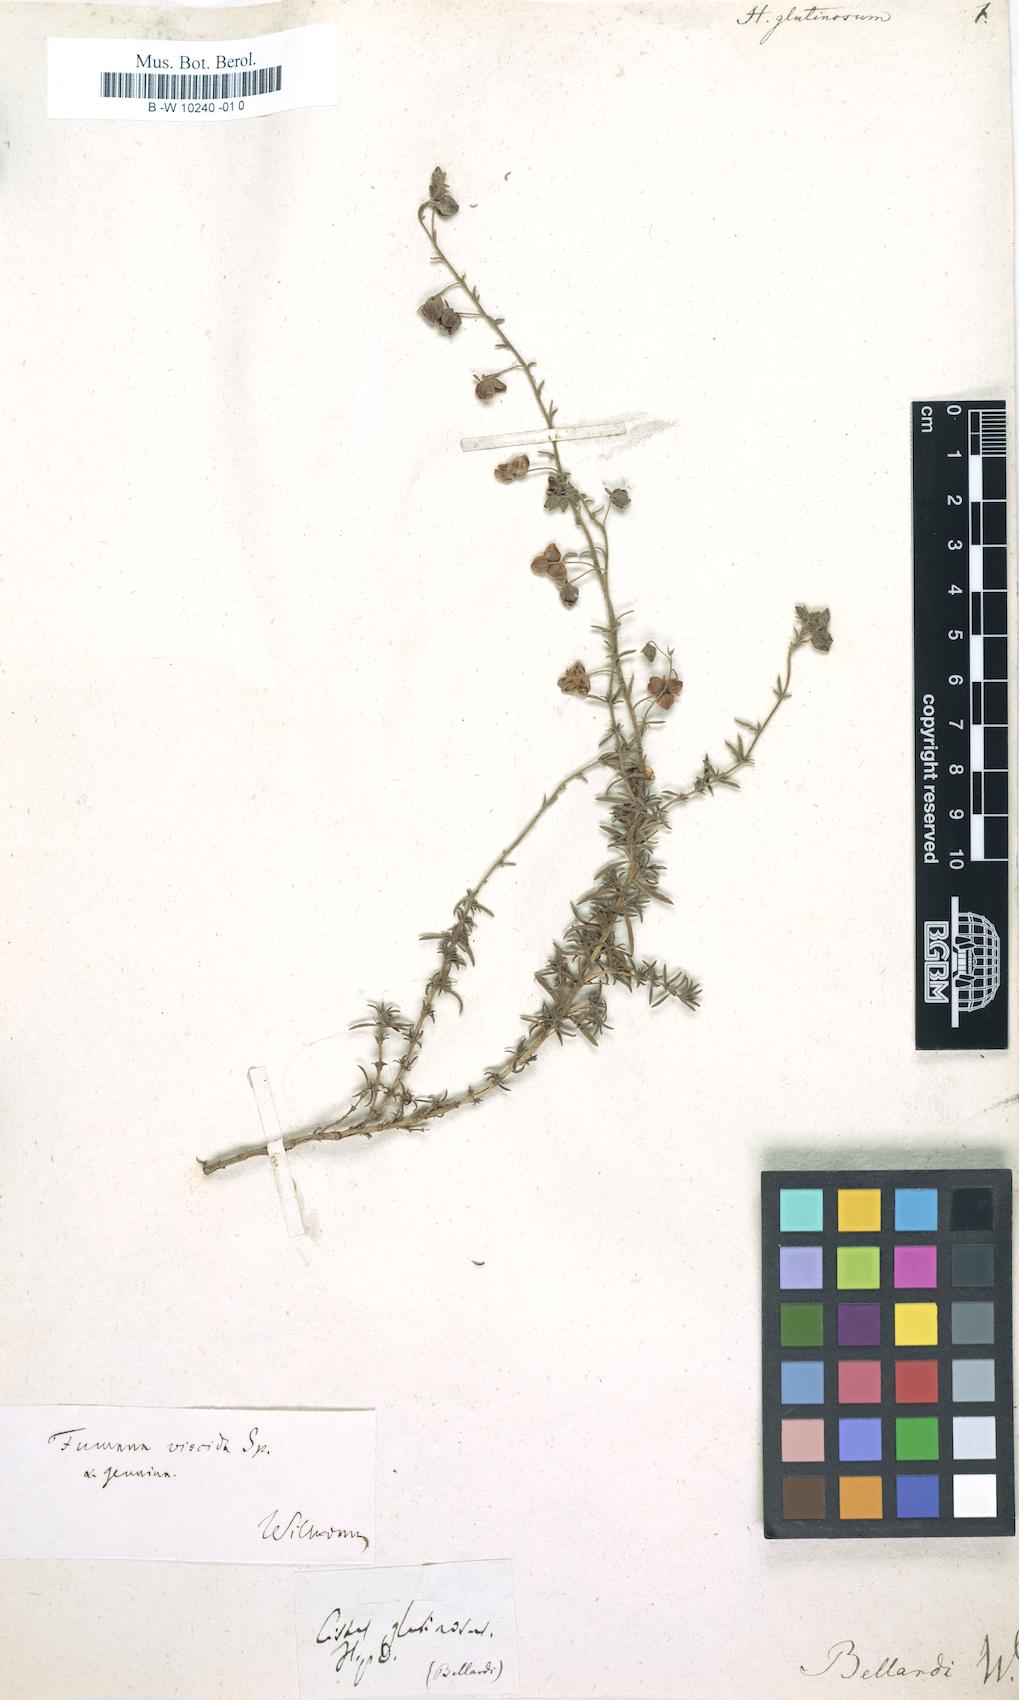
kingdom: Plantae
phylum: Tracheophyta
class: Magnoliopsida
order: Malvales
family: Cistaceae
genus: Fumana
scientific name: Fumana thymifolia
